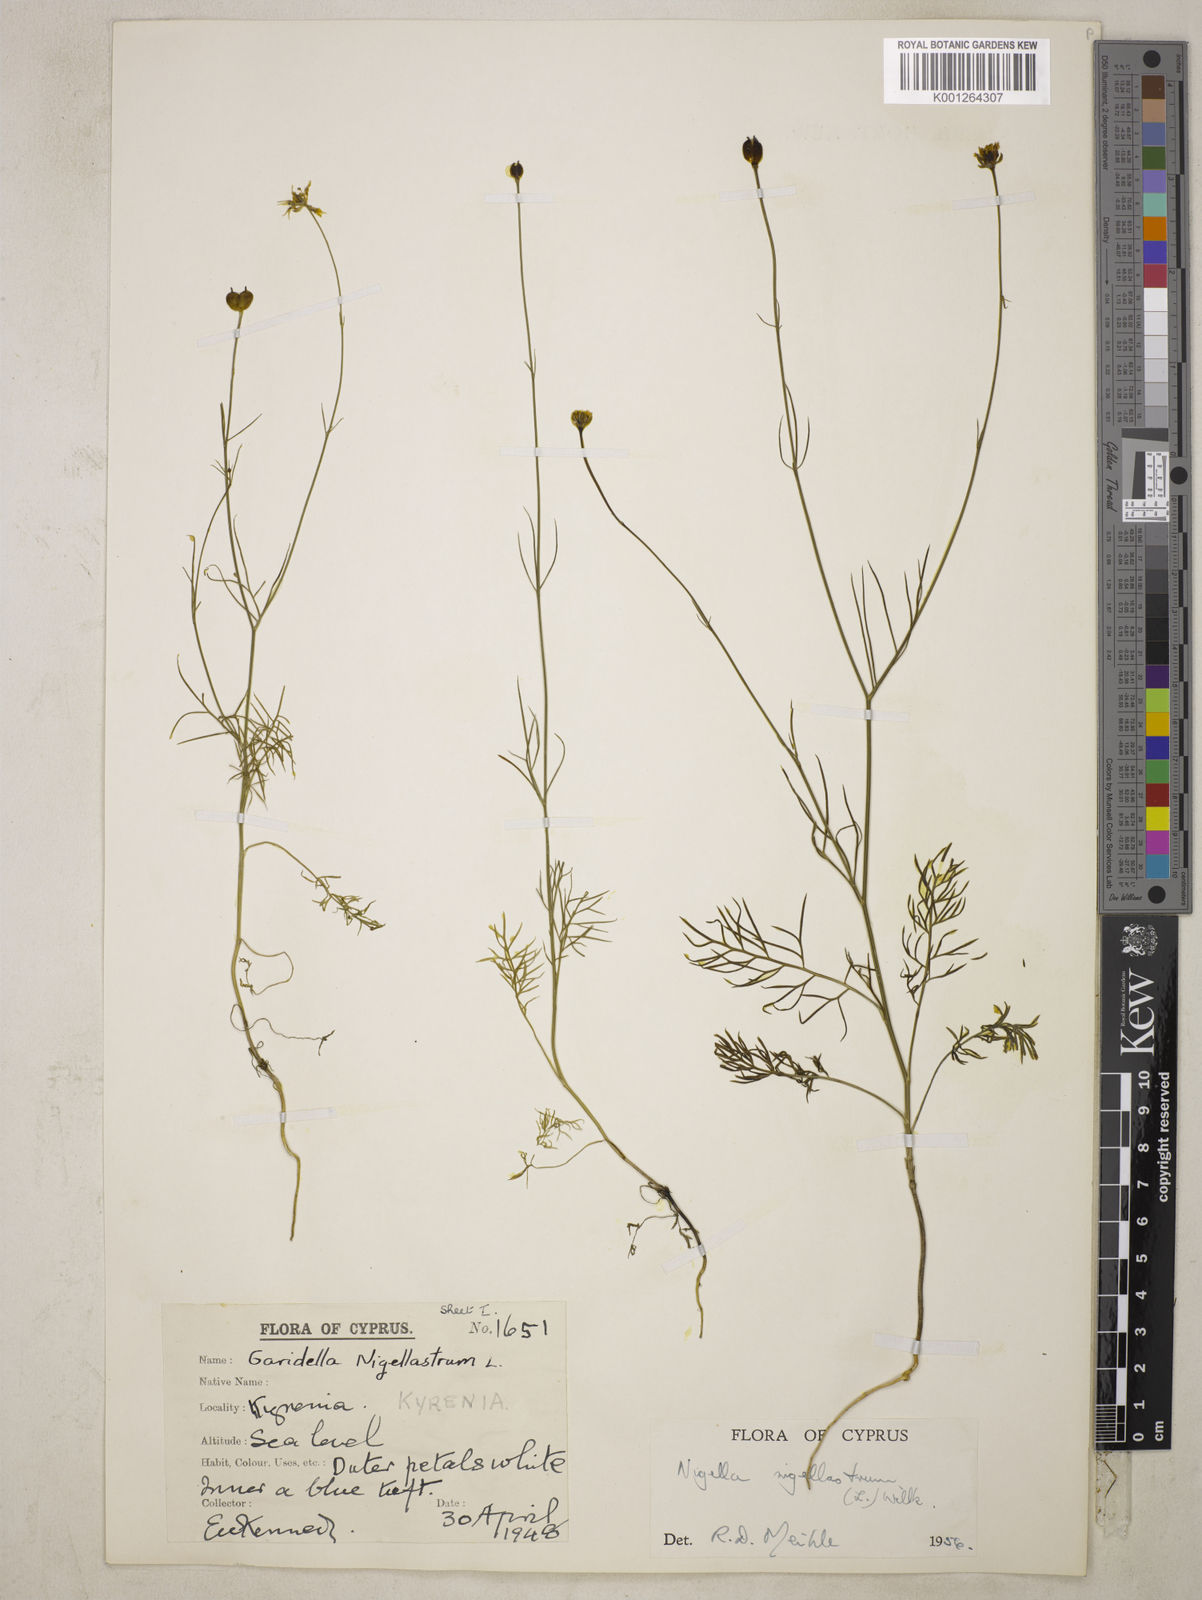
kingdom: Plantae
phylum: Tracheophyta
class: Magnoliopsida
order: Ranunculales
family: Ranunculaceae
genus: Garidella
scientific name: Garidella nigellastrum
